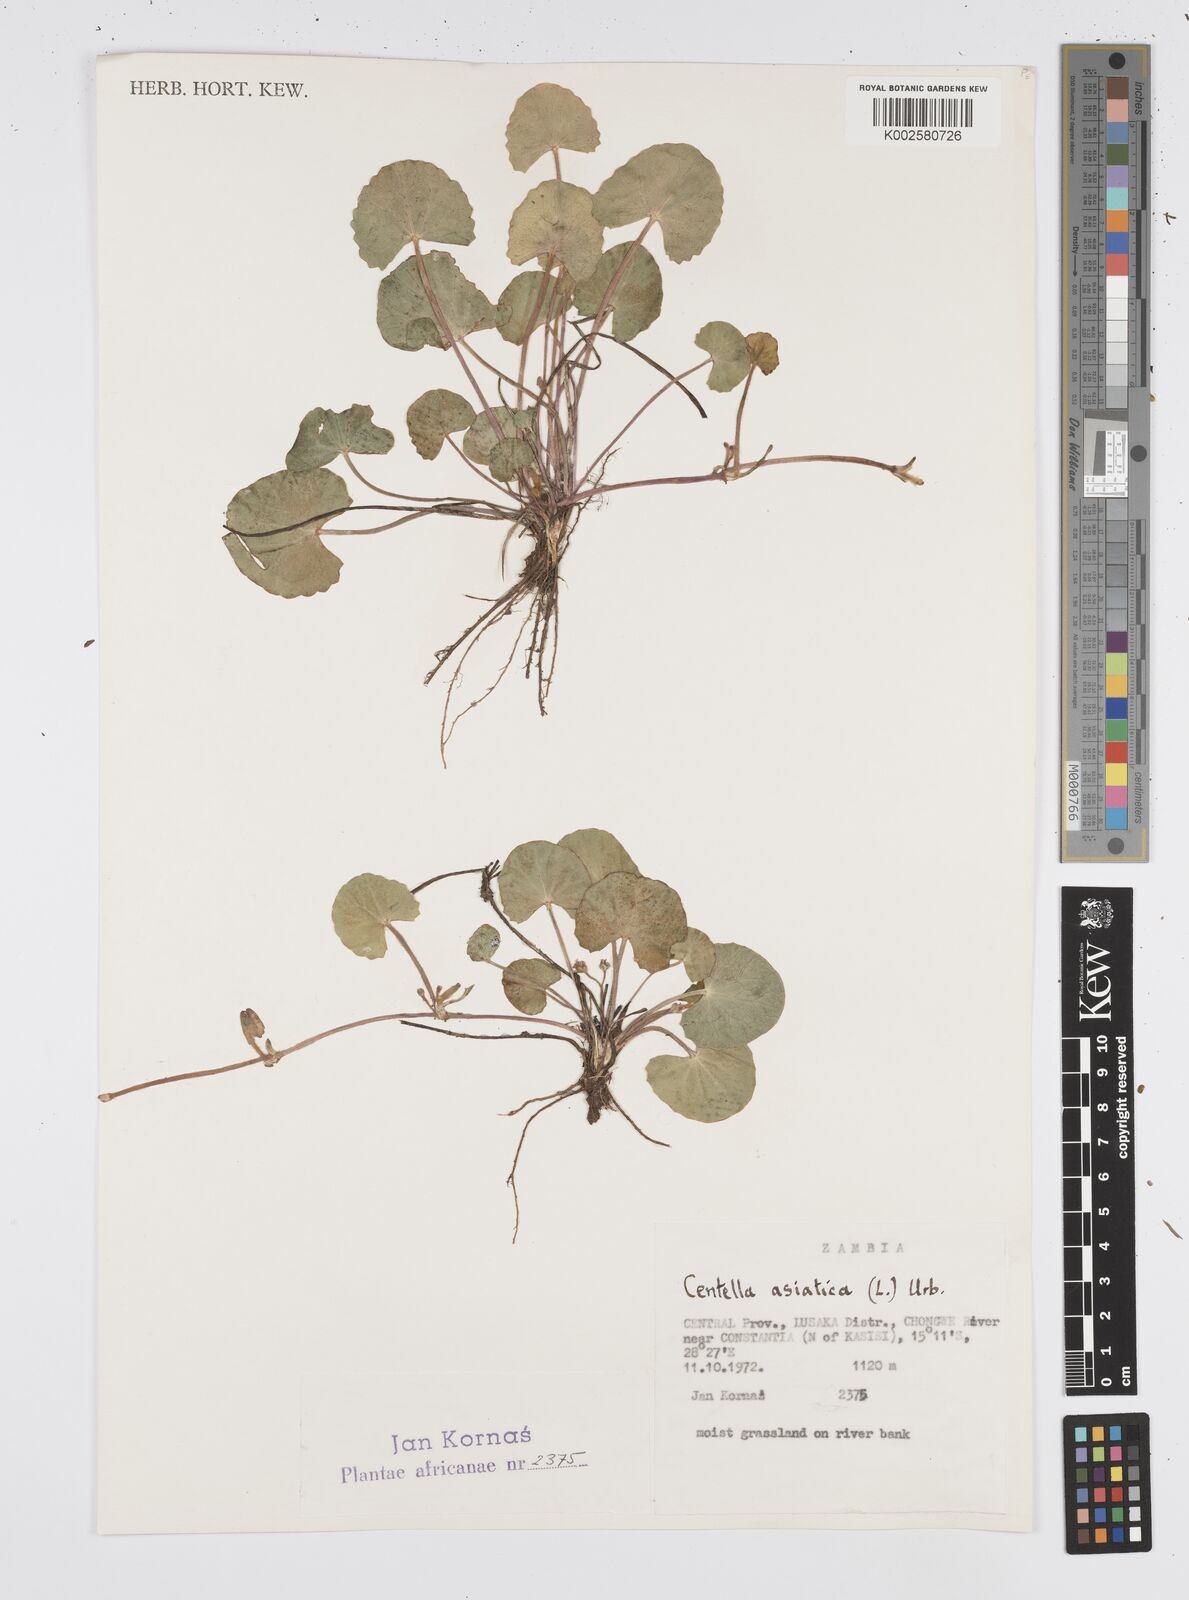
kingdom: Plantae
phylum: Tracheophyta
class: Magnoliopsida
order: Apiales
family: Apiaceae
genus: Centella
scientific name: Centella asiatica
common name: Spadeleaf
